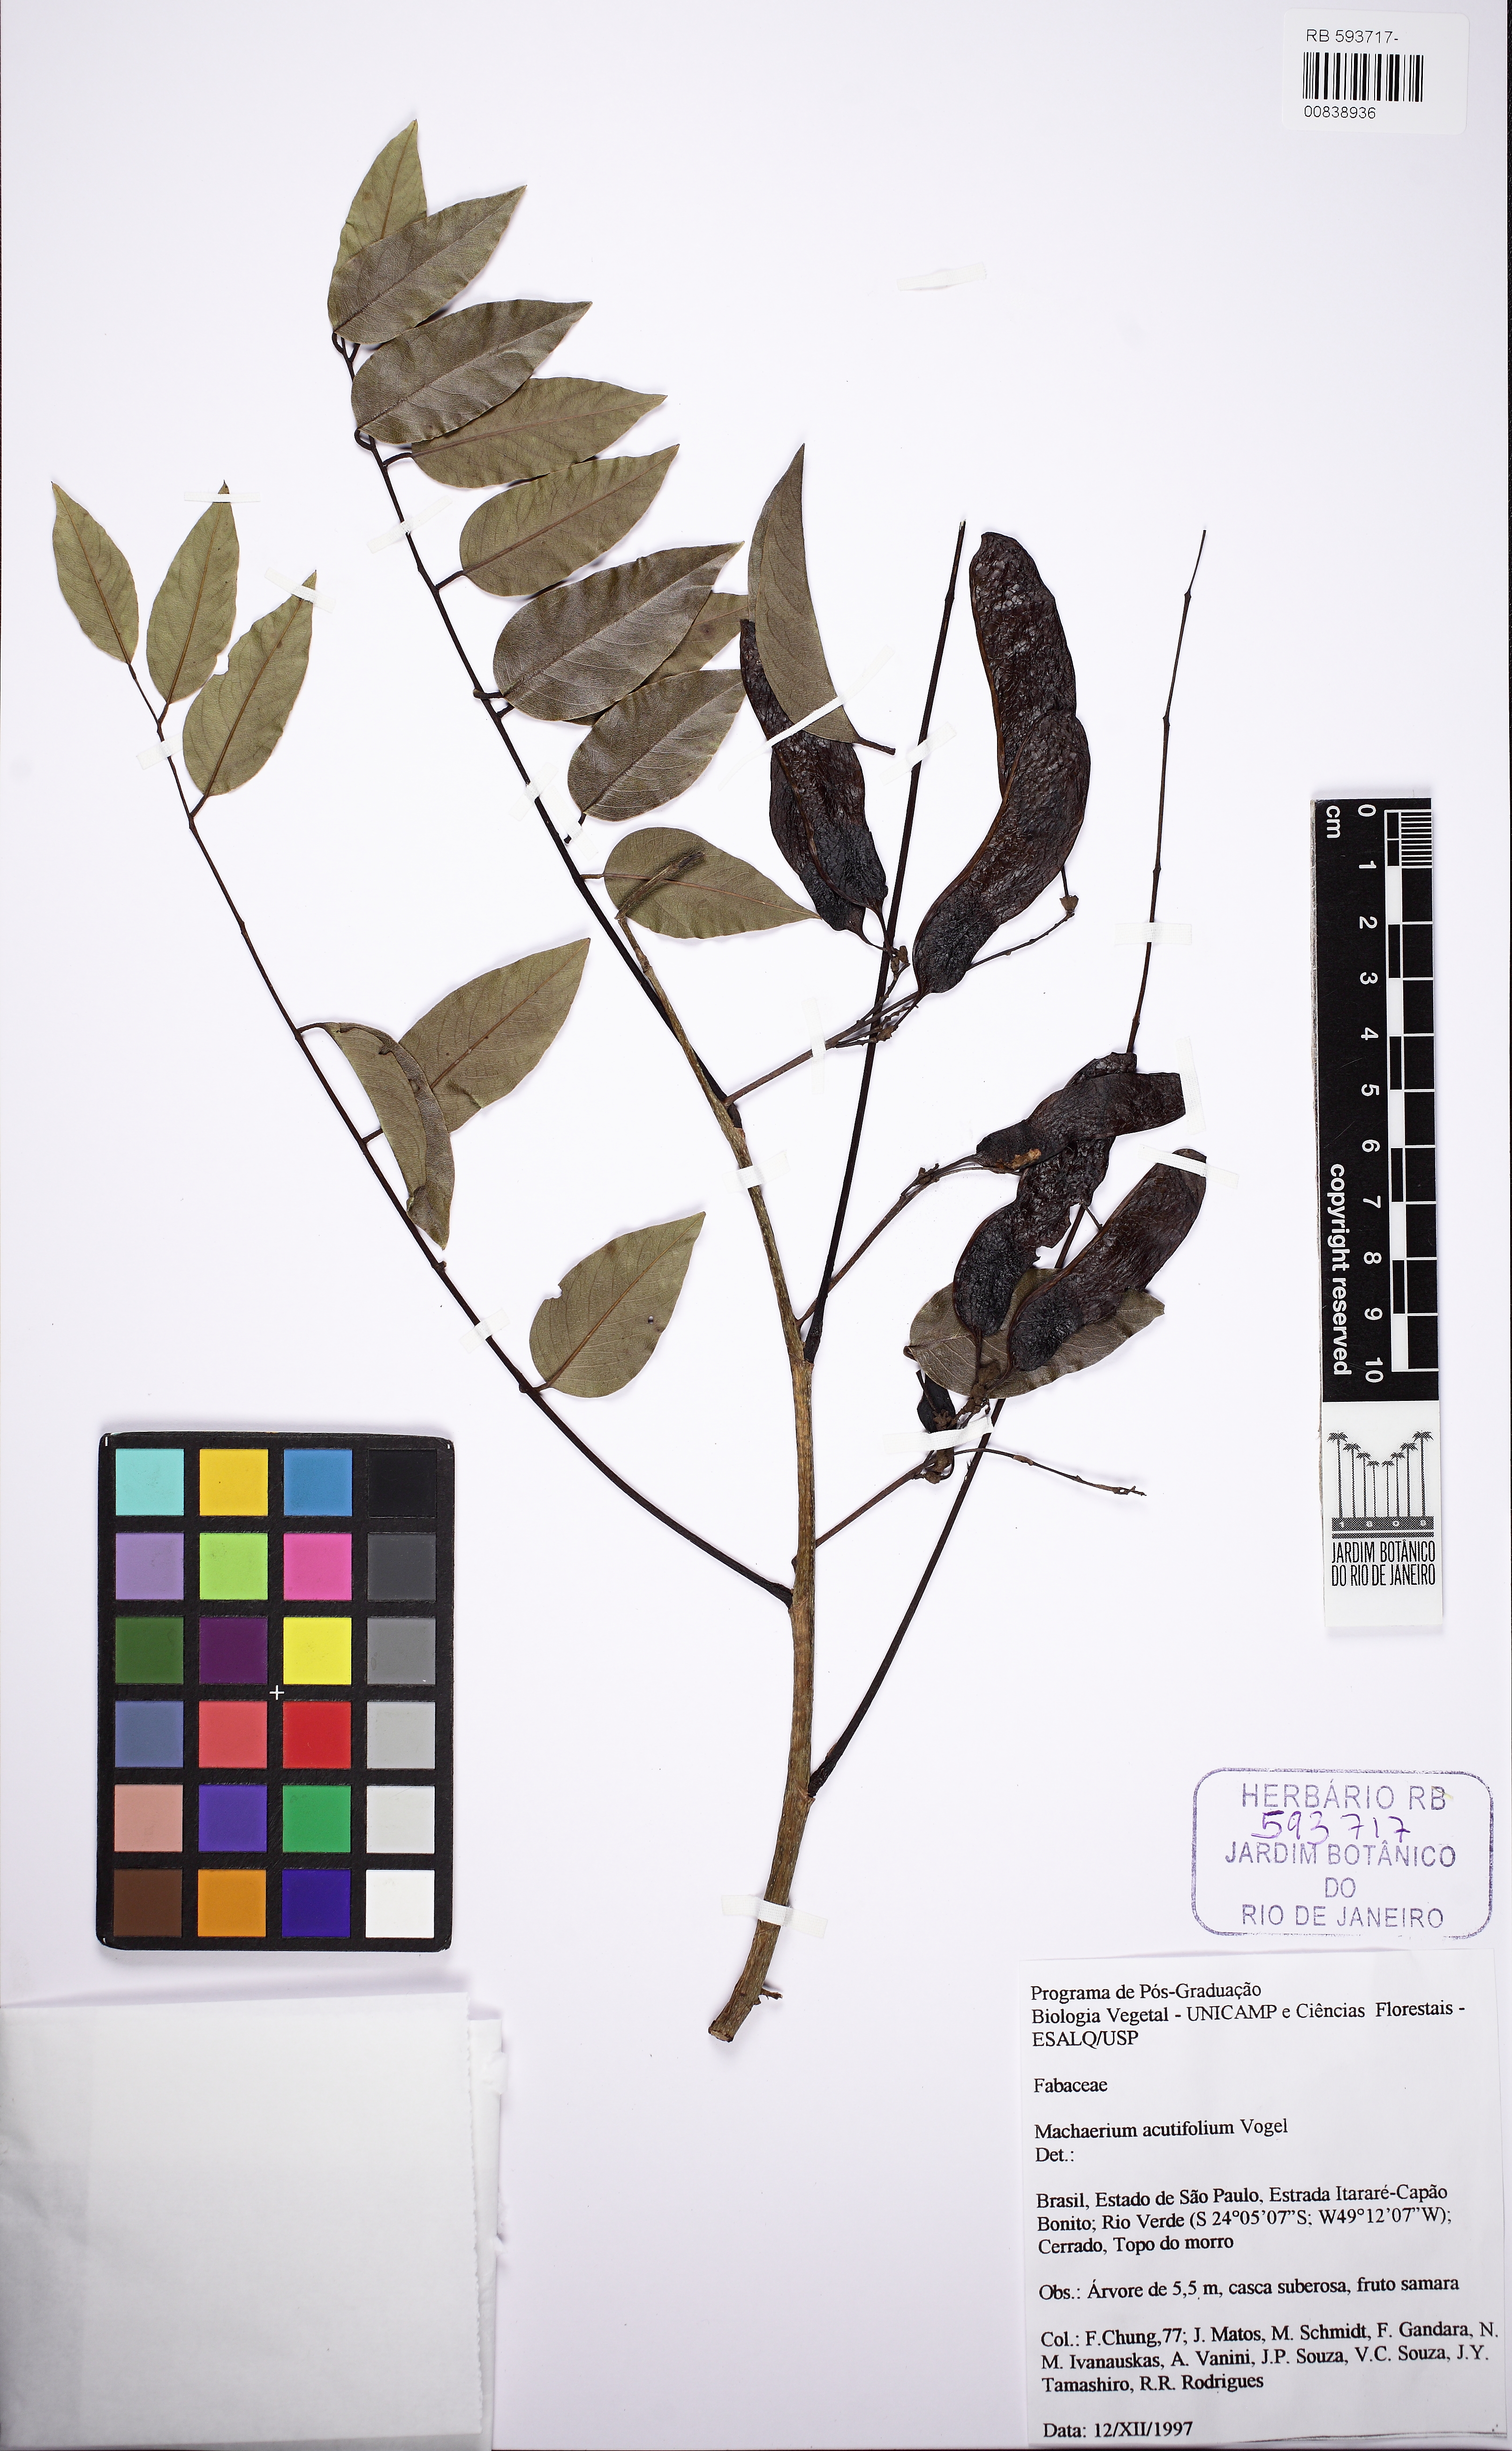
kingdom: Plantae
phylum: Tracheophyta
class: Magnoliopsida
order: Fabales
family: Fabaceae
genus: Machaerium
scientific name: Machaerium acutifolium
